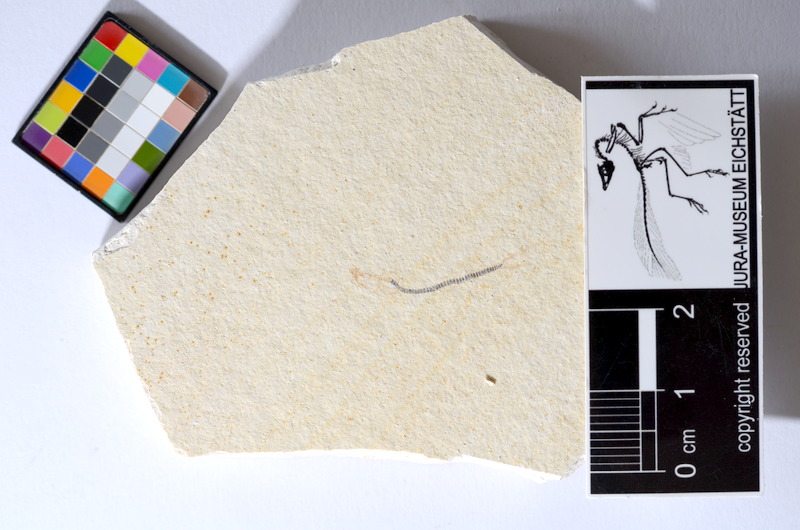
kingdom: Animalia
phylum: Chordata
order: Salmoniformes
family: Orthogonikleithridae
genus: Orthogonikleithrus
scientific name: Orthogonikleithrus hoelli
